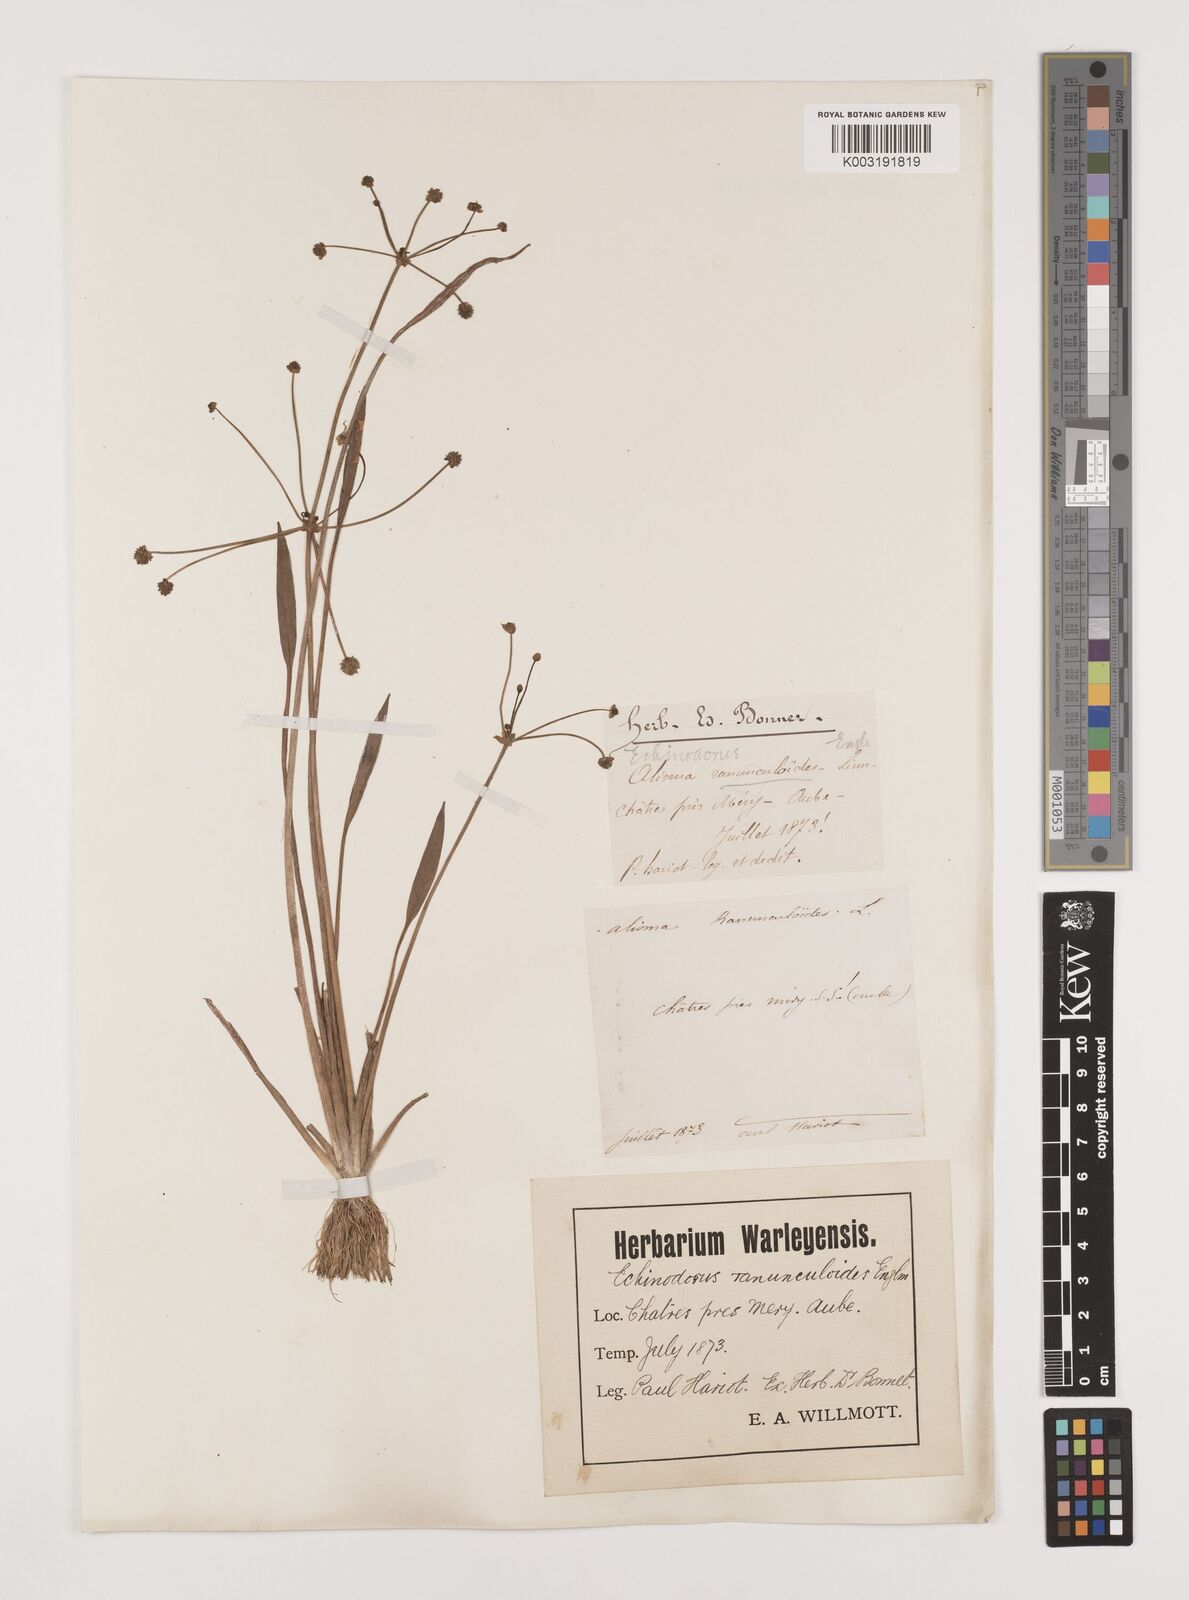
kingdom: Plantae
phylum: Tracheophyta
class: Liliopsida
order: Alismatales
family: Alismataceae
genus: Baldellia
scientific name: Baldellia ranunculoides
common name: Lesser water-plantain
